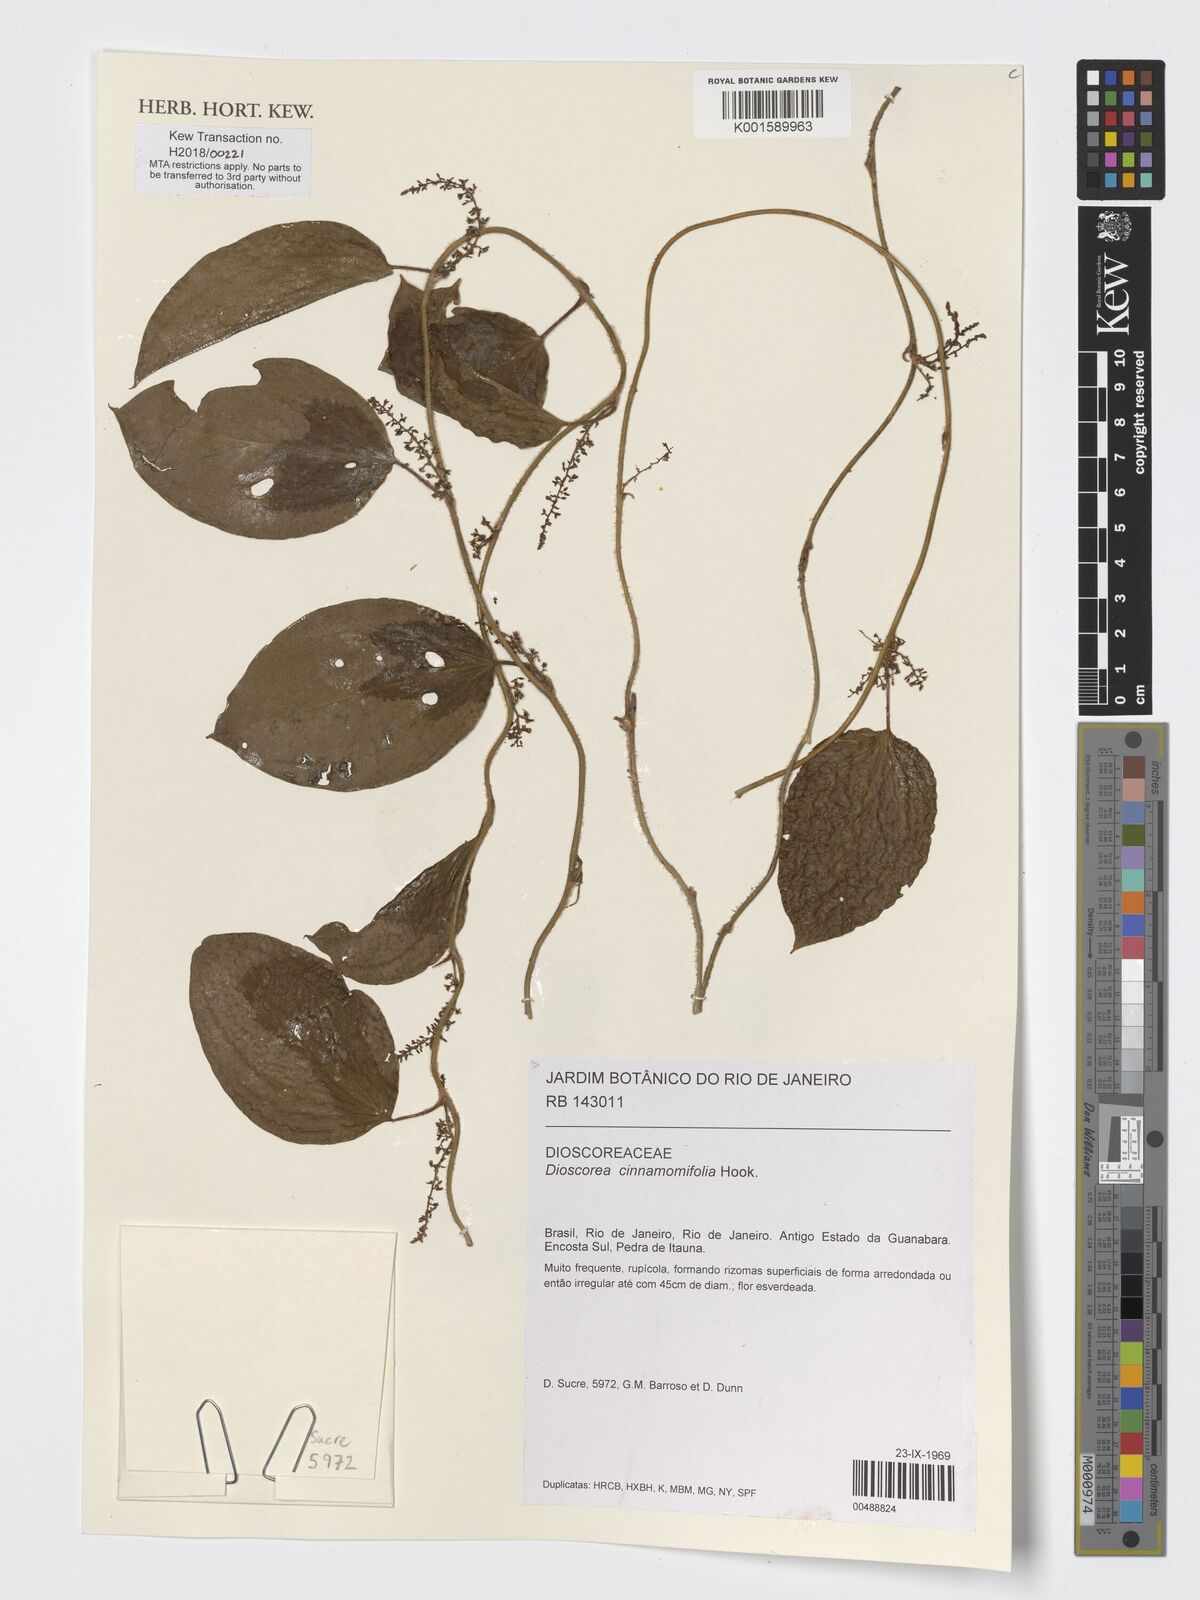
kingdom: Plantae
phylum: Tracheophyta
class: Liliopsida
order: Dioscoreales
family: Dioscoreaceae
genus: Dioscorea
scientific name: Dioscorea cinnamomifolia
